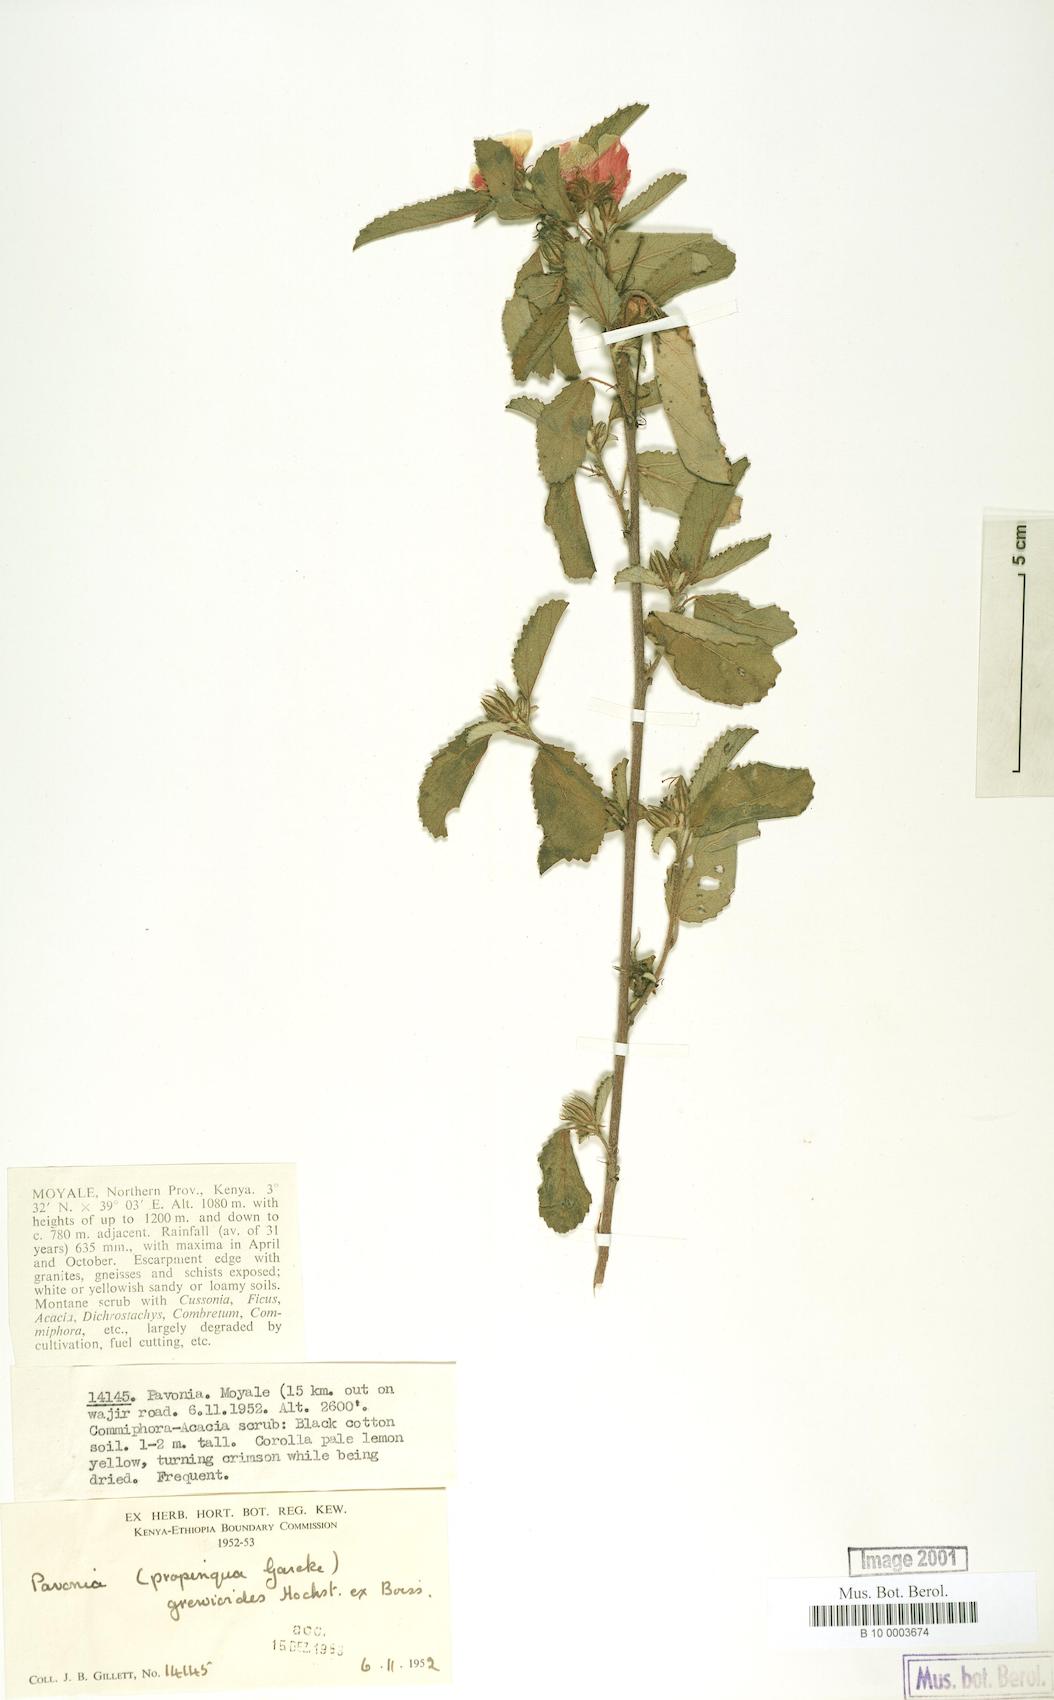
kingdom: Plantae
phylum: Tracheophyta
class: Magnoliopsida
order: Malvales
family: Malvaceae
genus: Pavonia
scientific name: Pavonia propinqua
